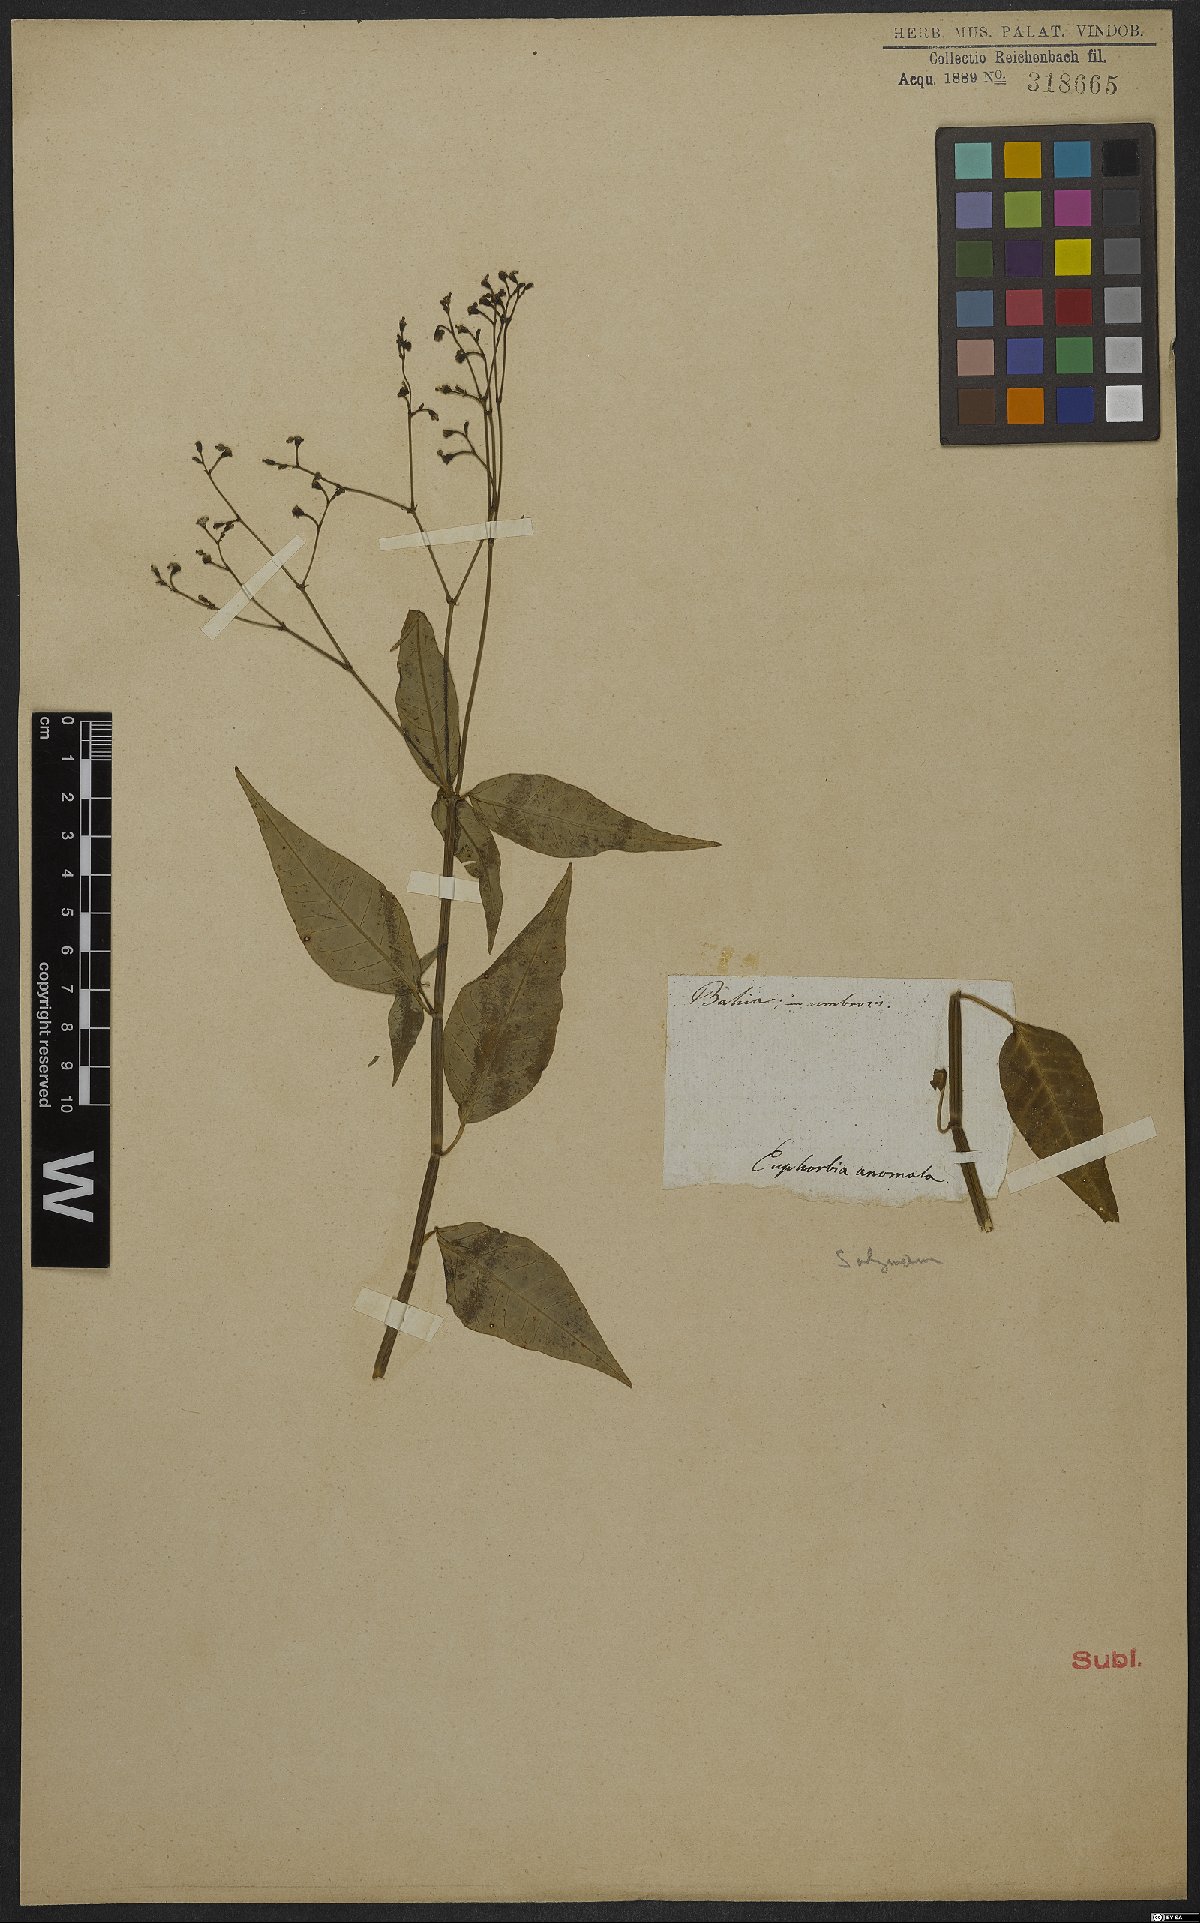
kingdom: Plantae
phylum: Tracheophyta
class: Magnoliopsida
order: Malpighiales
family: Euphorbiaceae
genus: Euphorbia
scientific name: Euphorbia glanduligera
